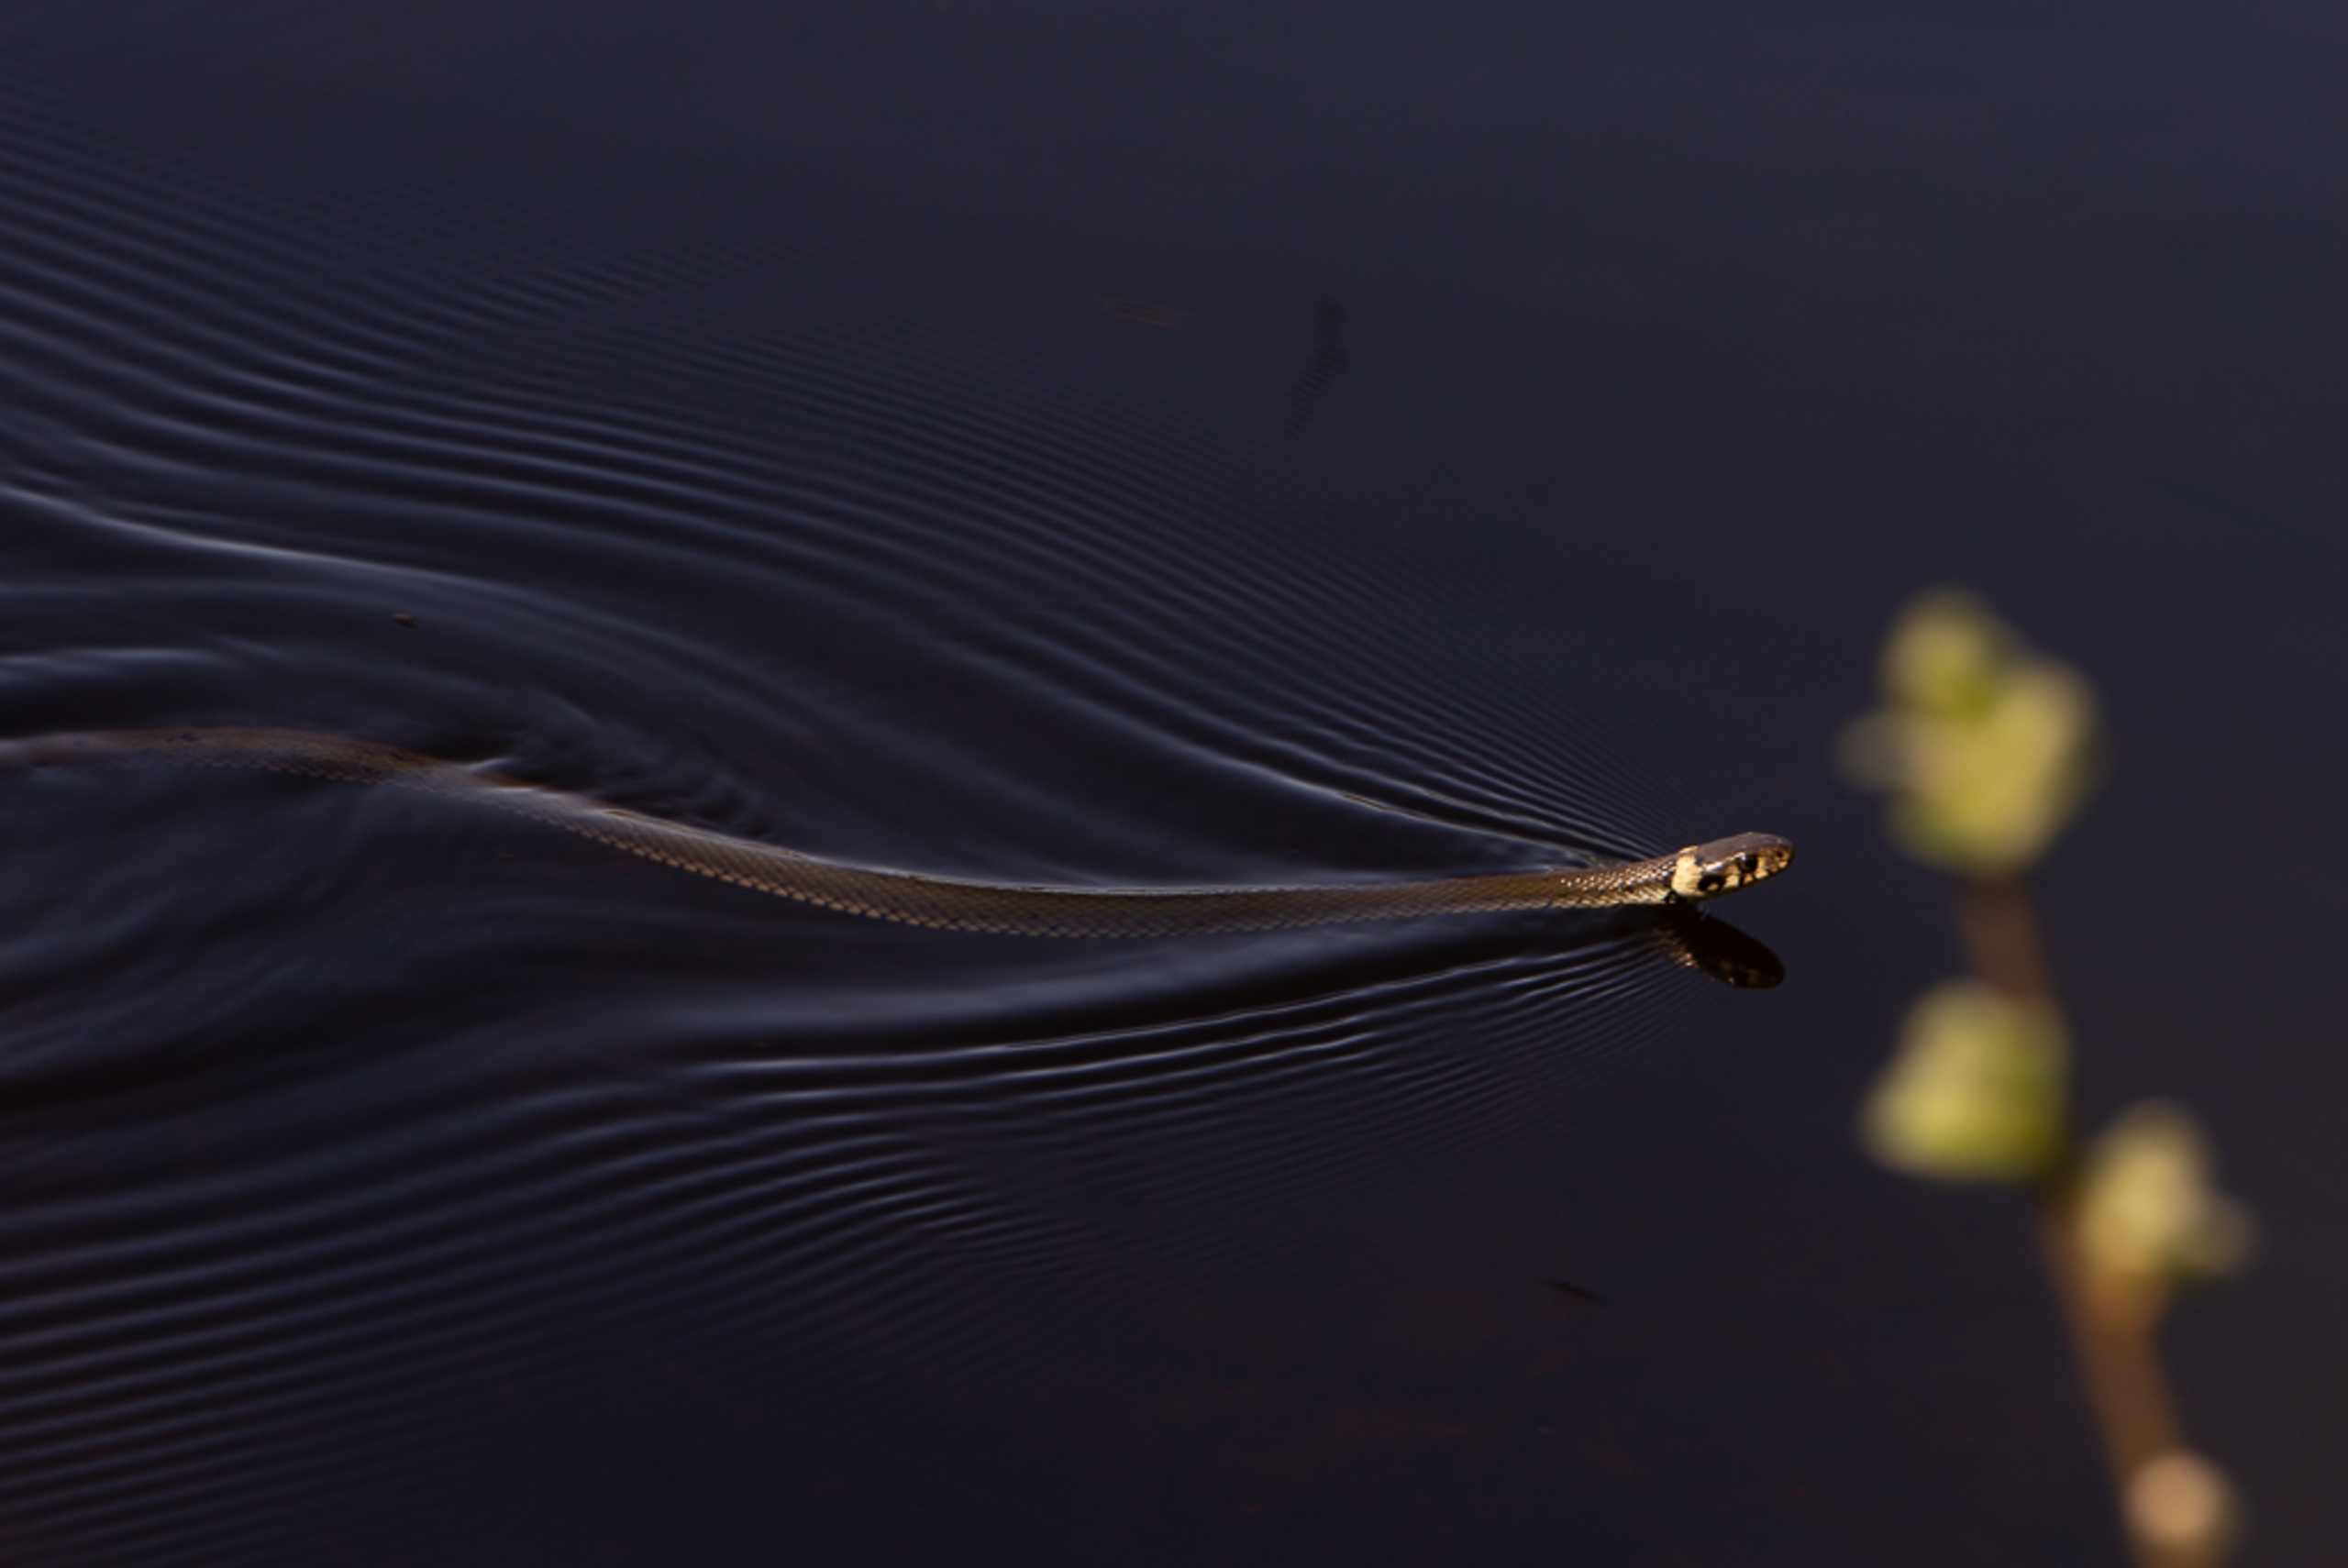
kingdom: Animalia
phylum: Chordata
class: Squamata
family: Colubridae
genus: Natrix
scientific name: Natrix natrix
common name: Snog
